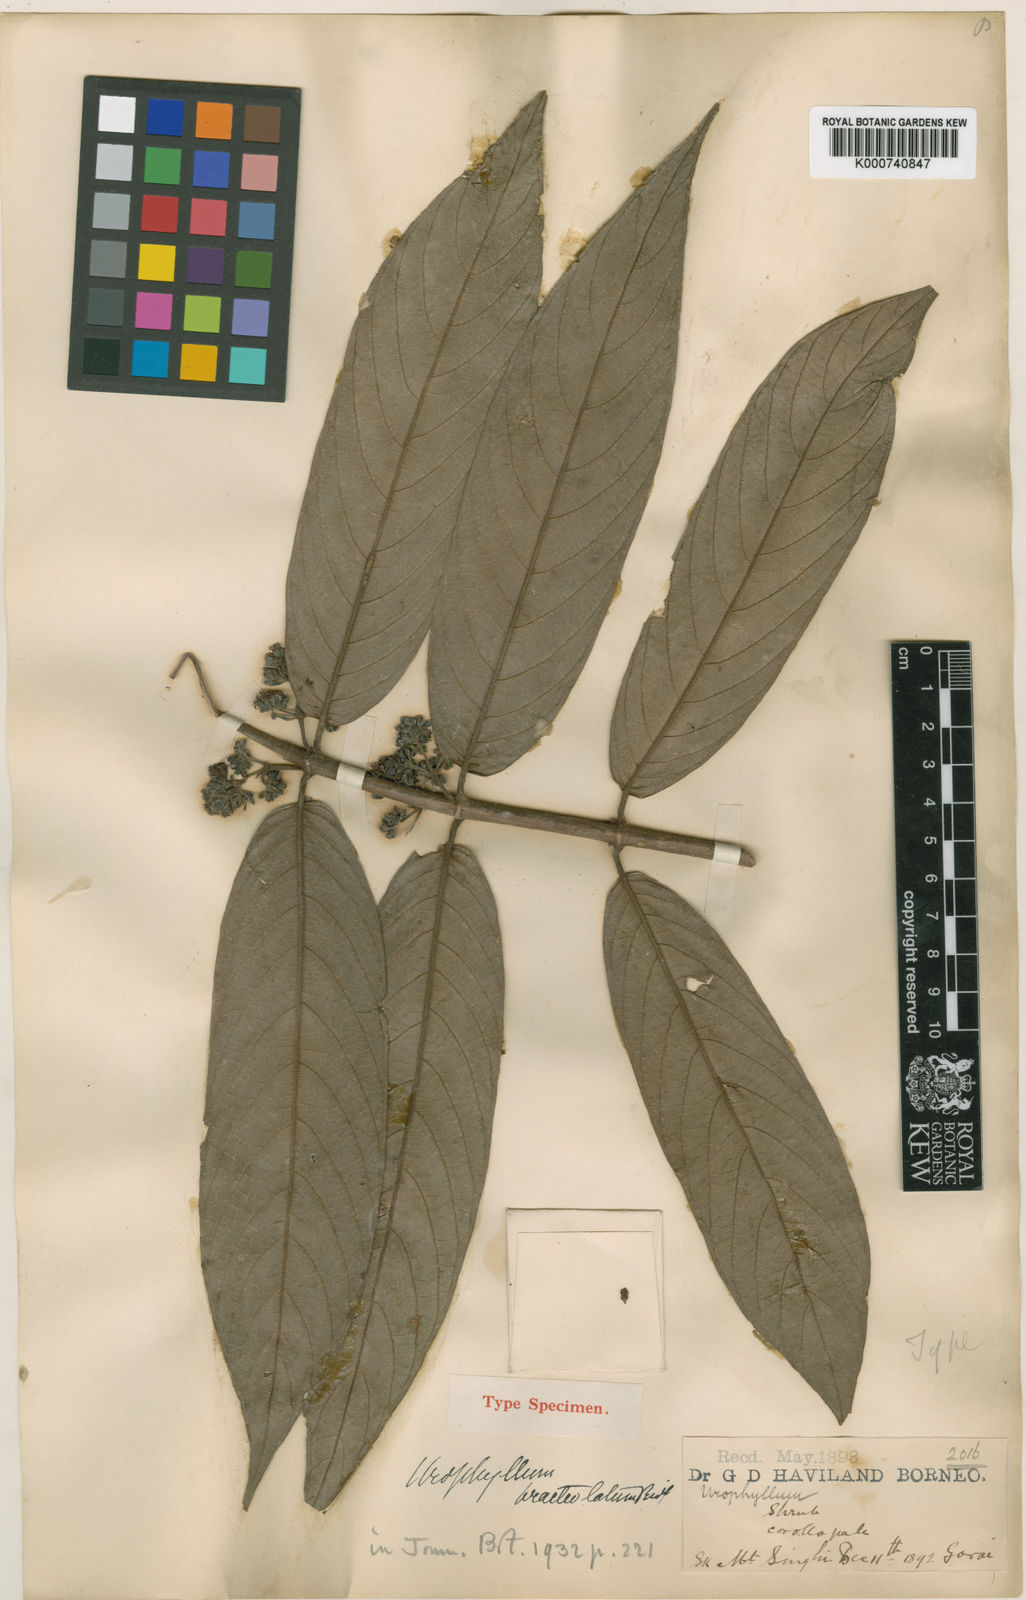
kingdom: Plantae
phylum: Tracheophyta
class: Magnoliopsida
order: Gentianales
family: Rubiaceae
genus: Urophyllum
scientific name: Urophyllum bracteolatum
